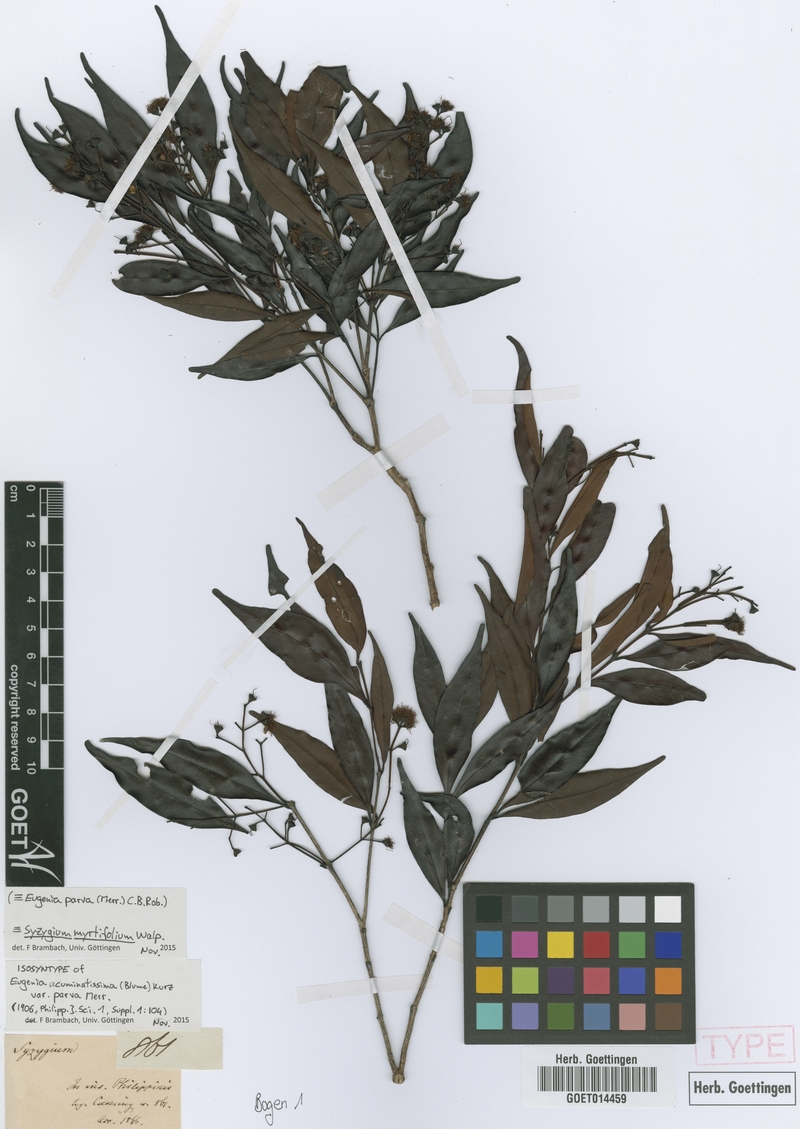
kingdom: Plantae
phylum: Tracheophyta
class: Magnoliopsida
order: Myrtales
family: Myrtaceae
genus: Syzygium
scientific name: Syzygium myrtifolium
